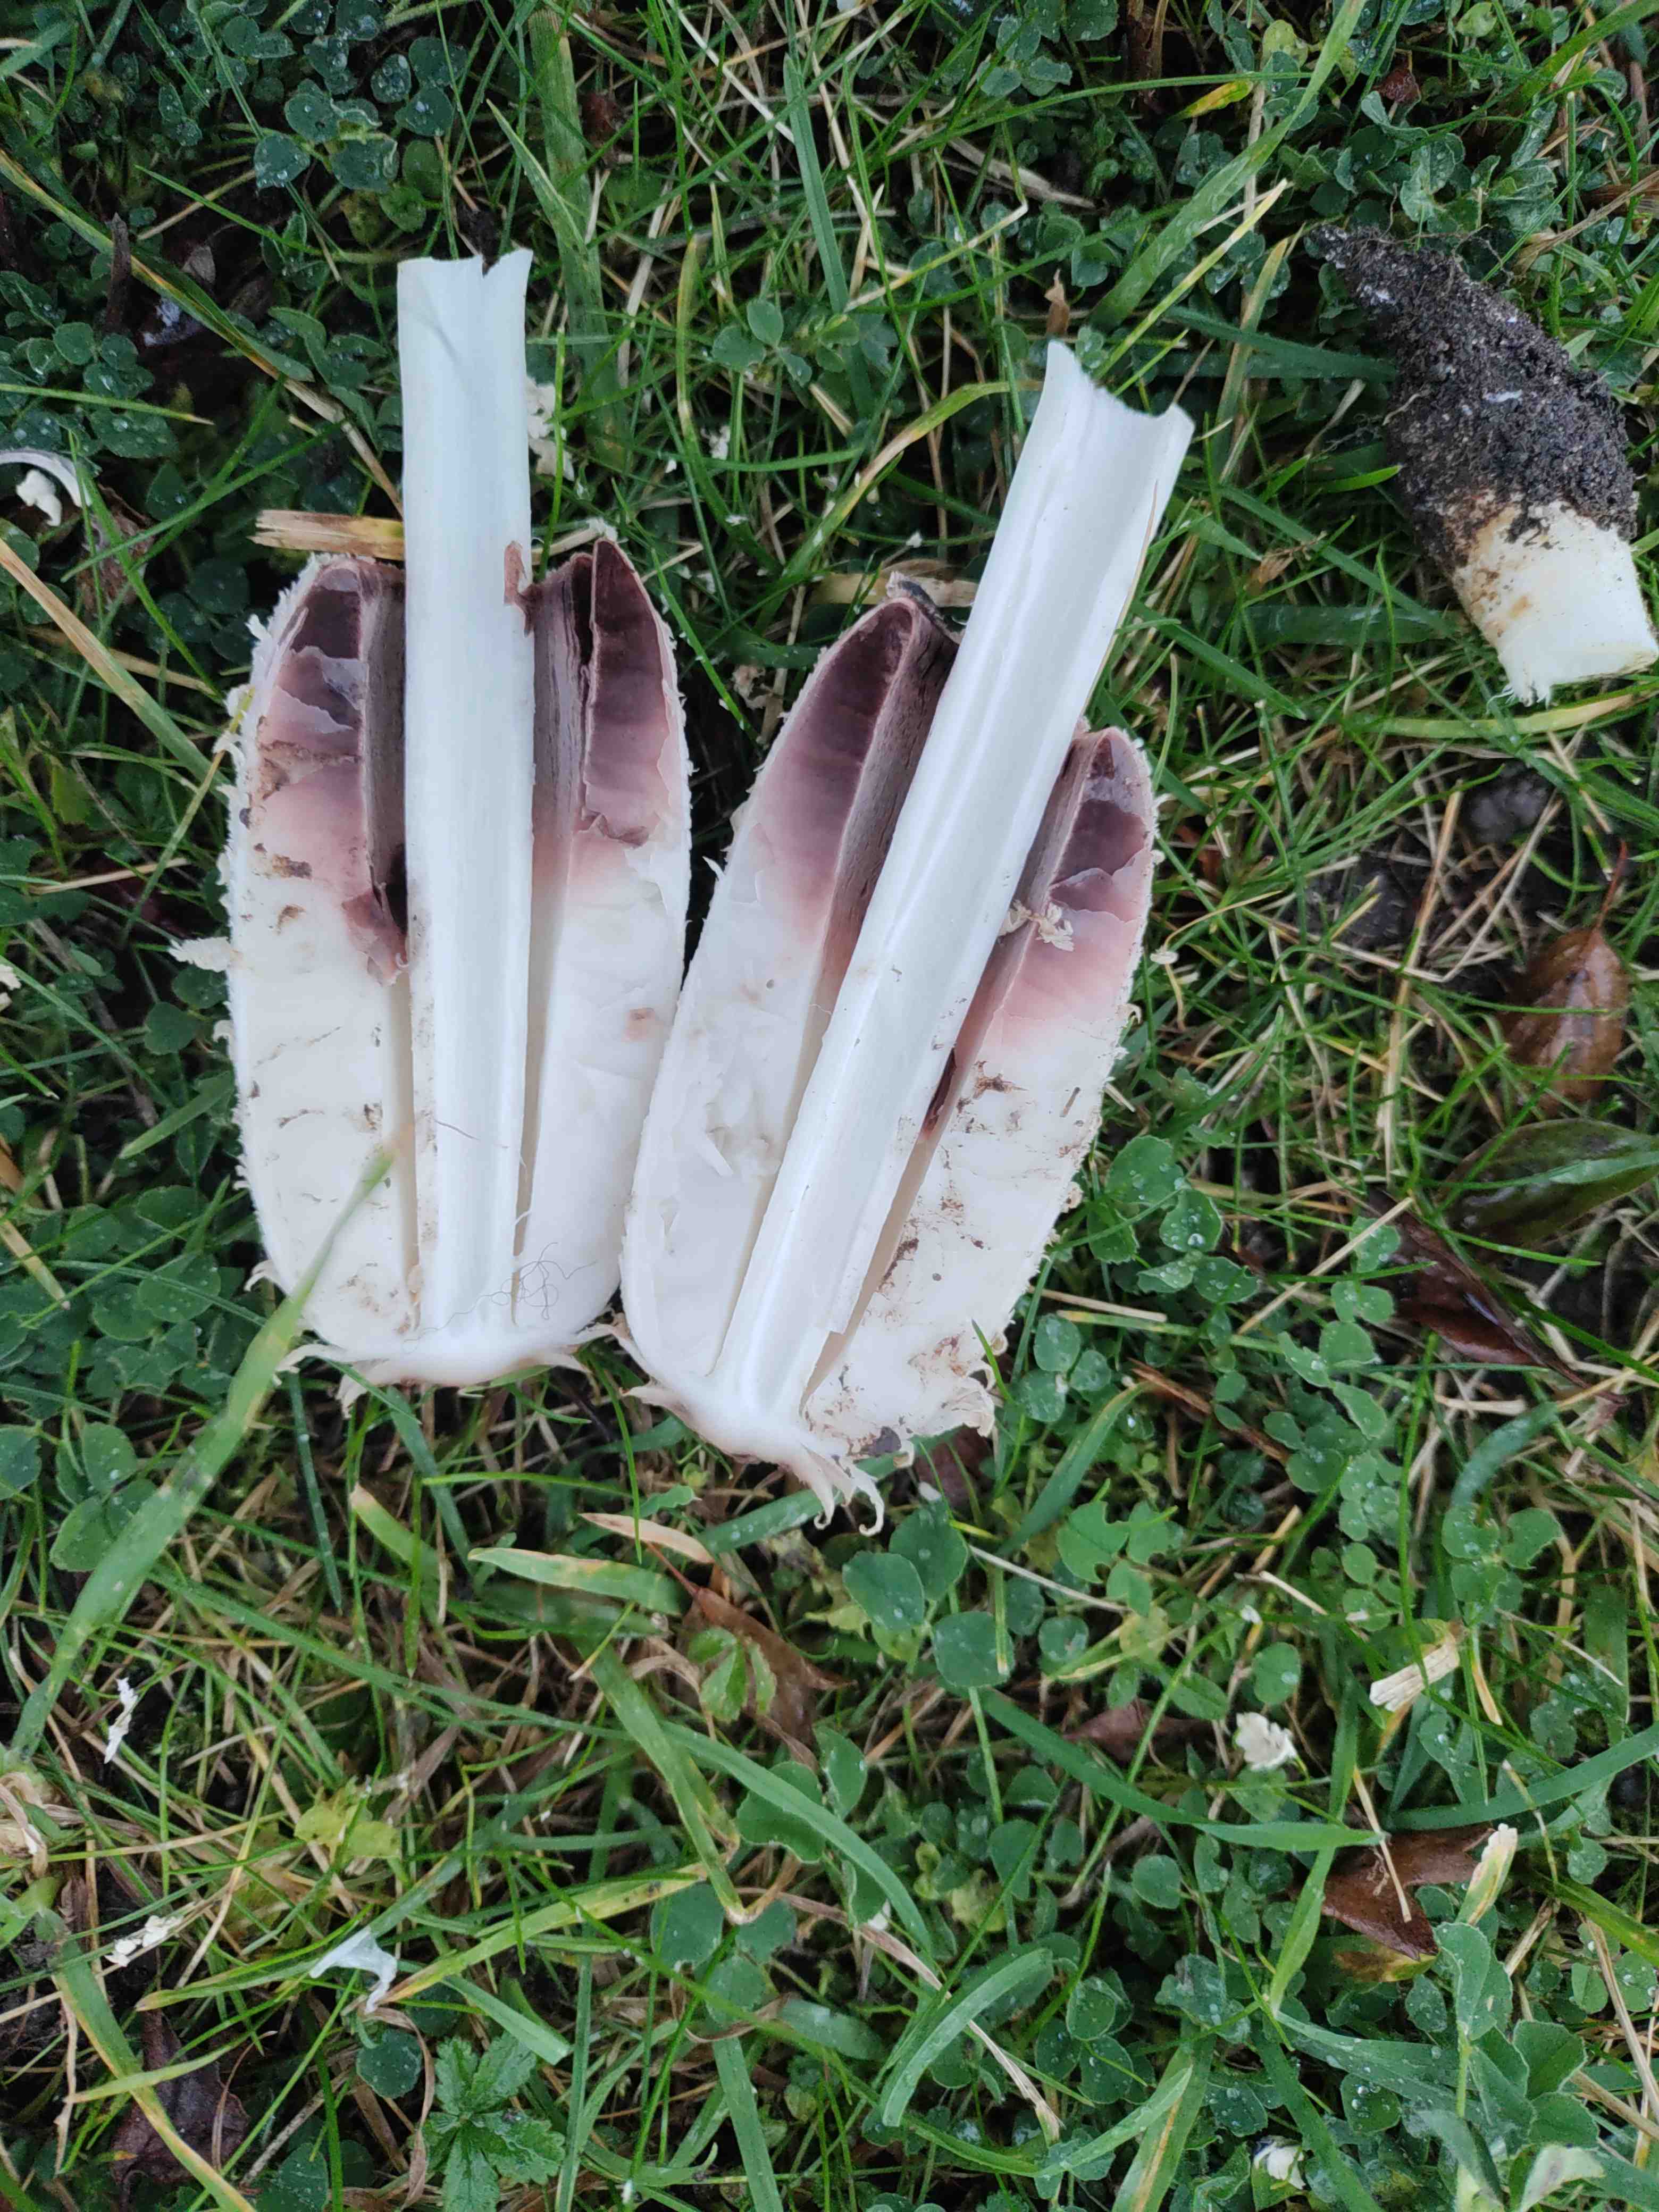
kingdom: Fungi
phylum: Basidiomycota
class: Agaricomycetes
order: Agaricales
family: Agaricaceae
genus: Coprinus
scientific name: Coprinus comatus
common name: stor parykhat
